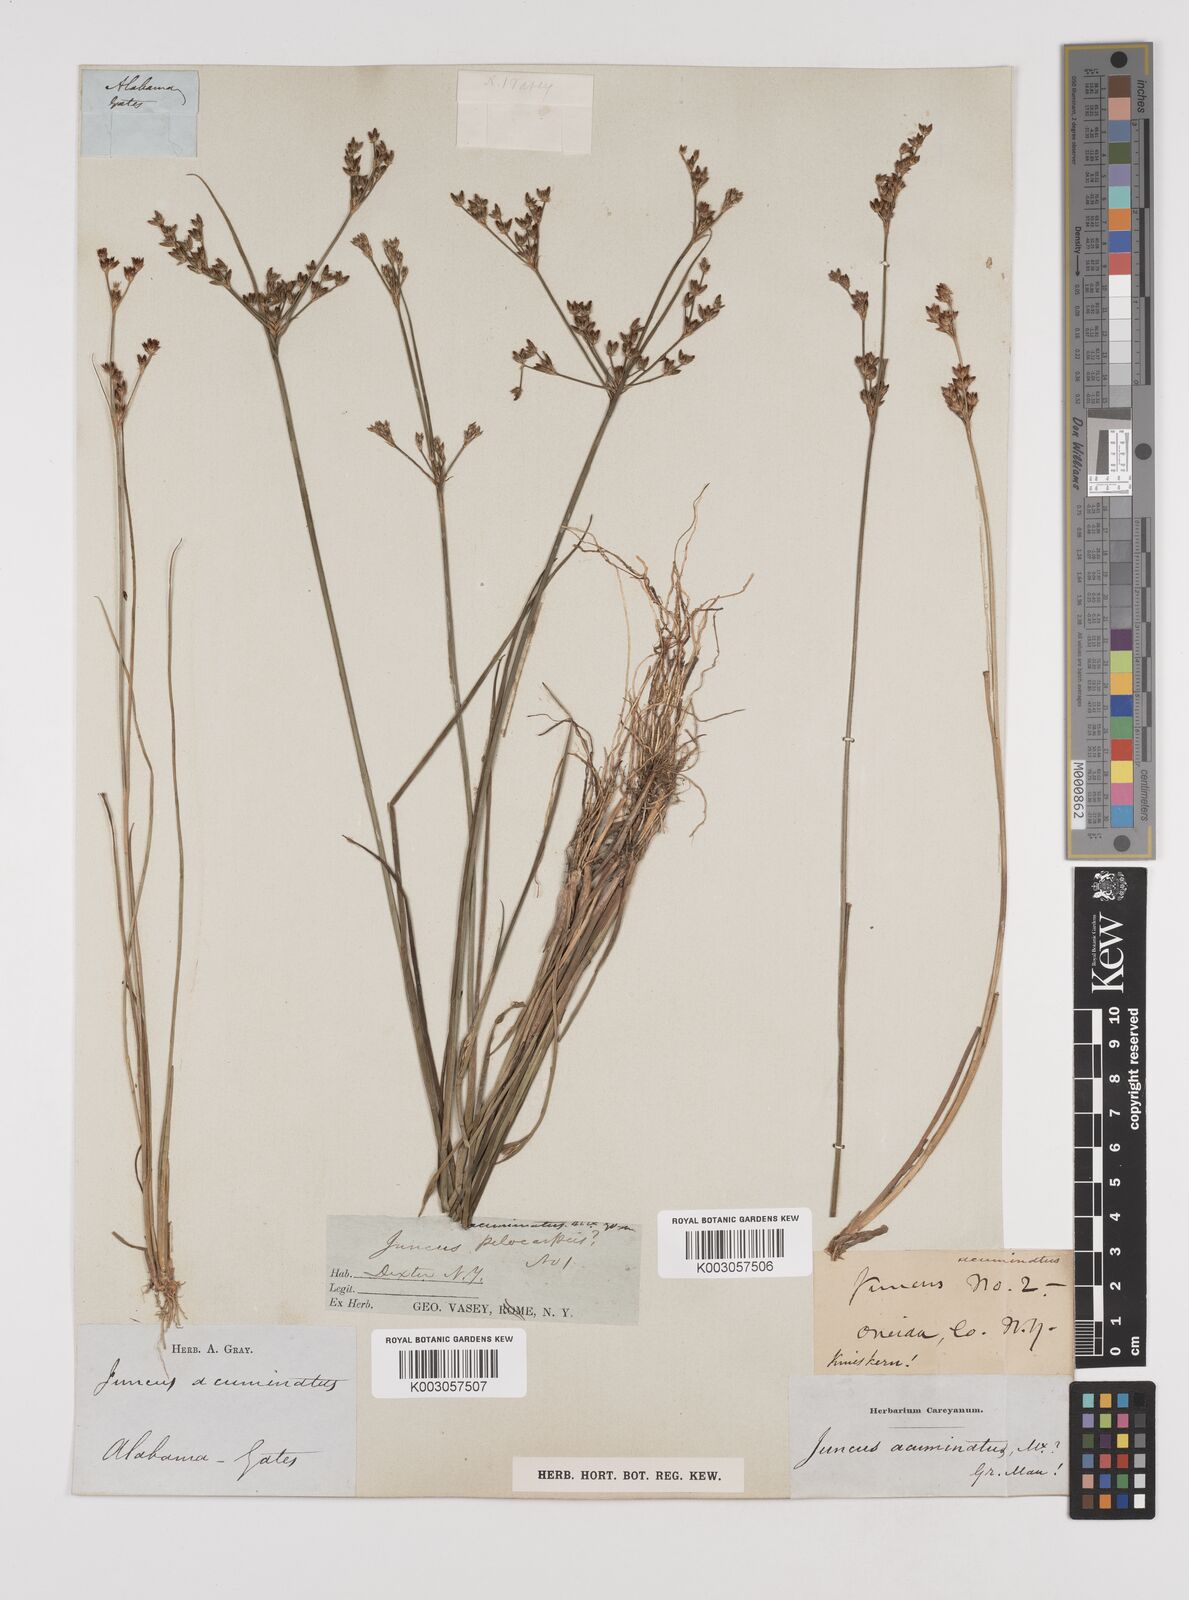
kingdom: Plantae
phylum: Tracheophyta
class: Liliopsida
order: Poales
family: Juncaceae
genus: Juncus
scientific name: Juncus debilis
